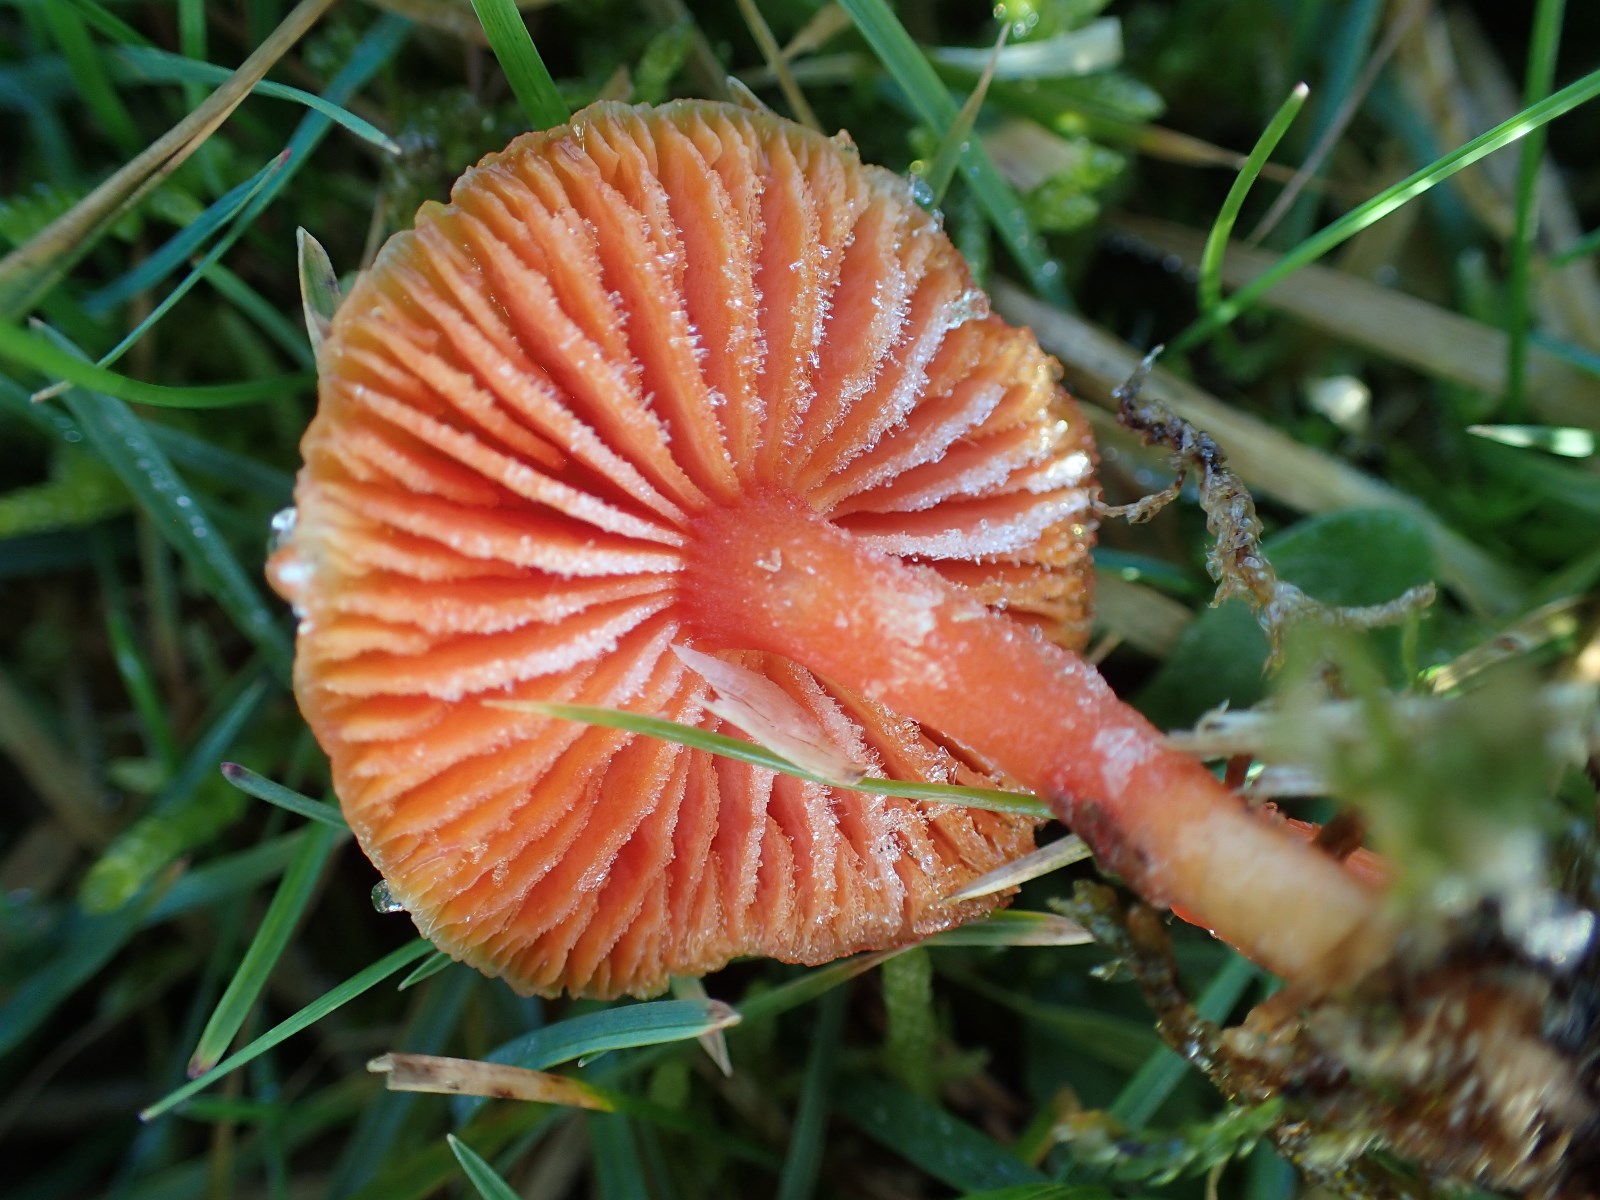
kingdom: Fungi
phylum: Basidiomycota
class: Agaricomycetes
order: Agaricales
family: Hygrophoraceae
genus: Hygrocybe
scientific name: Hygrocybe miniata
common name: mønje-vokshat
